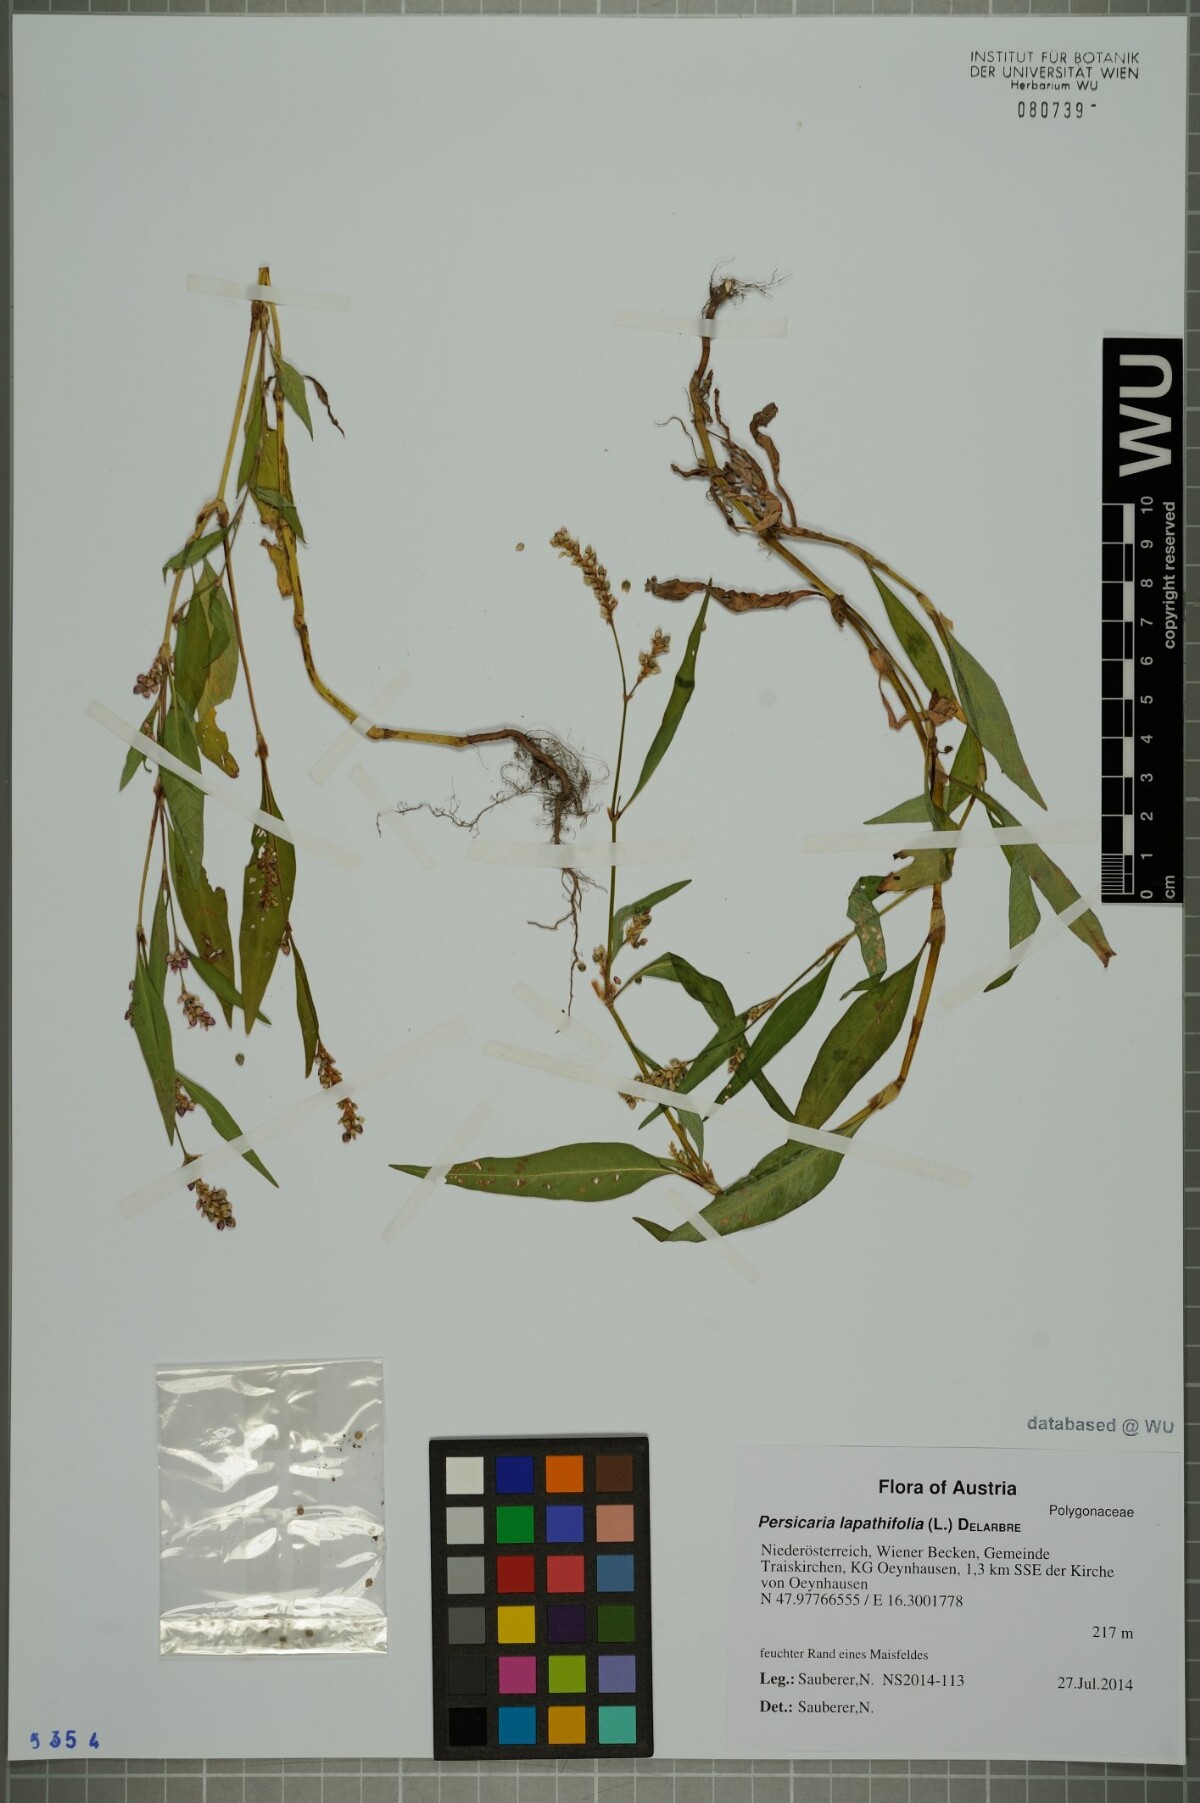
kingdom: Plantae
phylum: Tracheophyta
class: Magnoliopsida
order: Caryophyllales
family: Polygonaceae
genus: Persicaria
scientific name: Persicaria lapathifolia
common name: Curlytop knotweed
